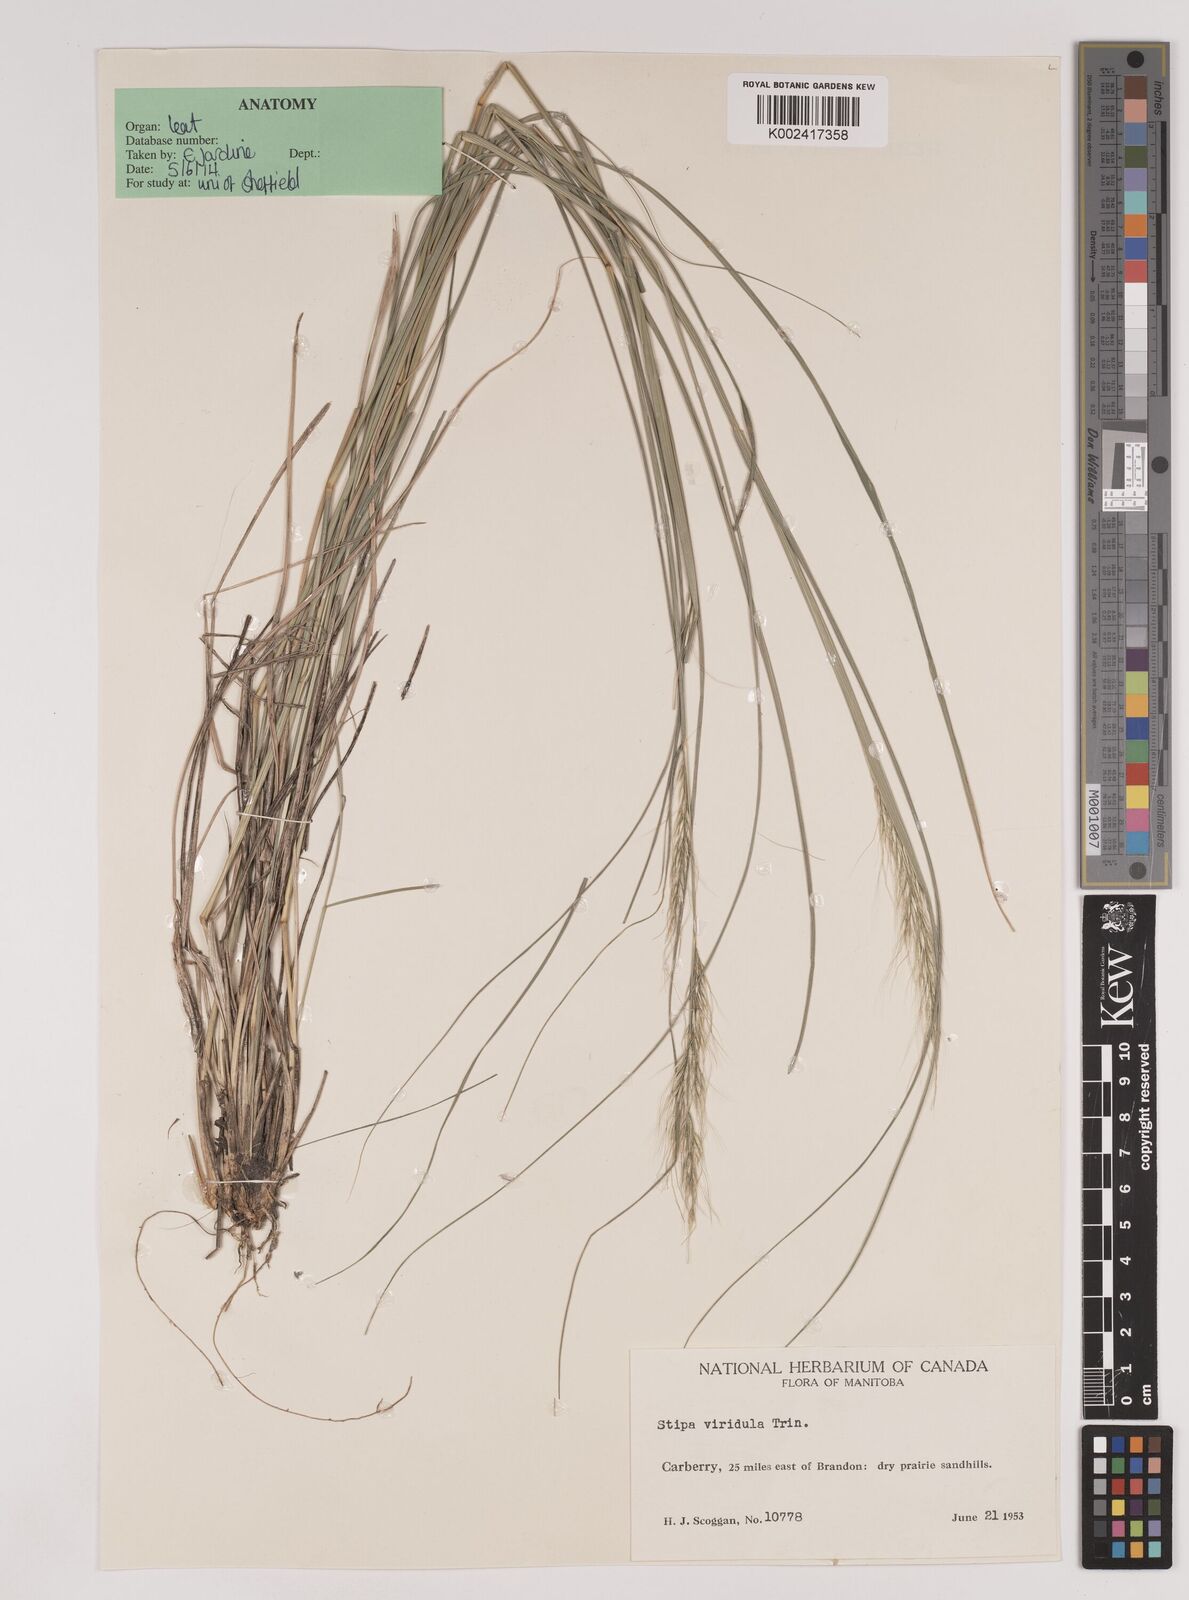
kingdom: Plantae
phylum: Tracheophyta
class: Liliopsida
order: Poales
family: Poaceae
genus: Nassella
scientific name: Nassella viridula
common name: Green needlegrass
